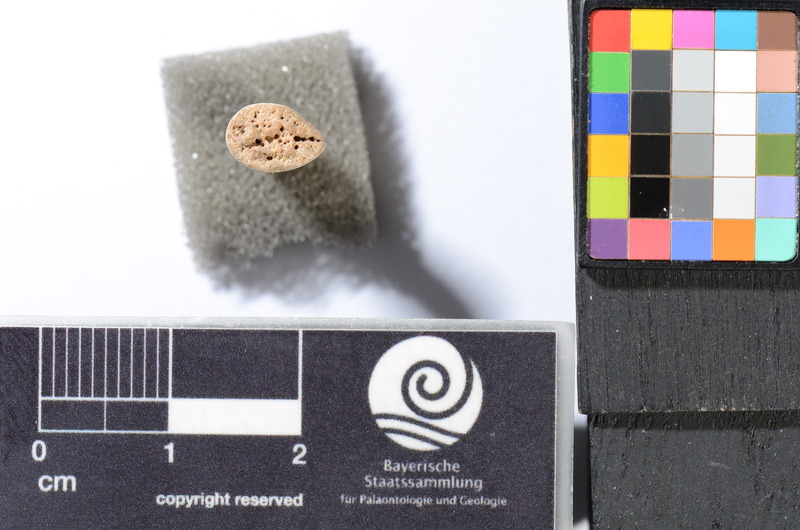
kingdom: Animalia
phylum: Chordata
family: Saurodontidae
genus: Saurocephalus
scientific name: Saurocephalus
